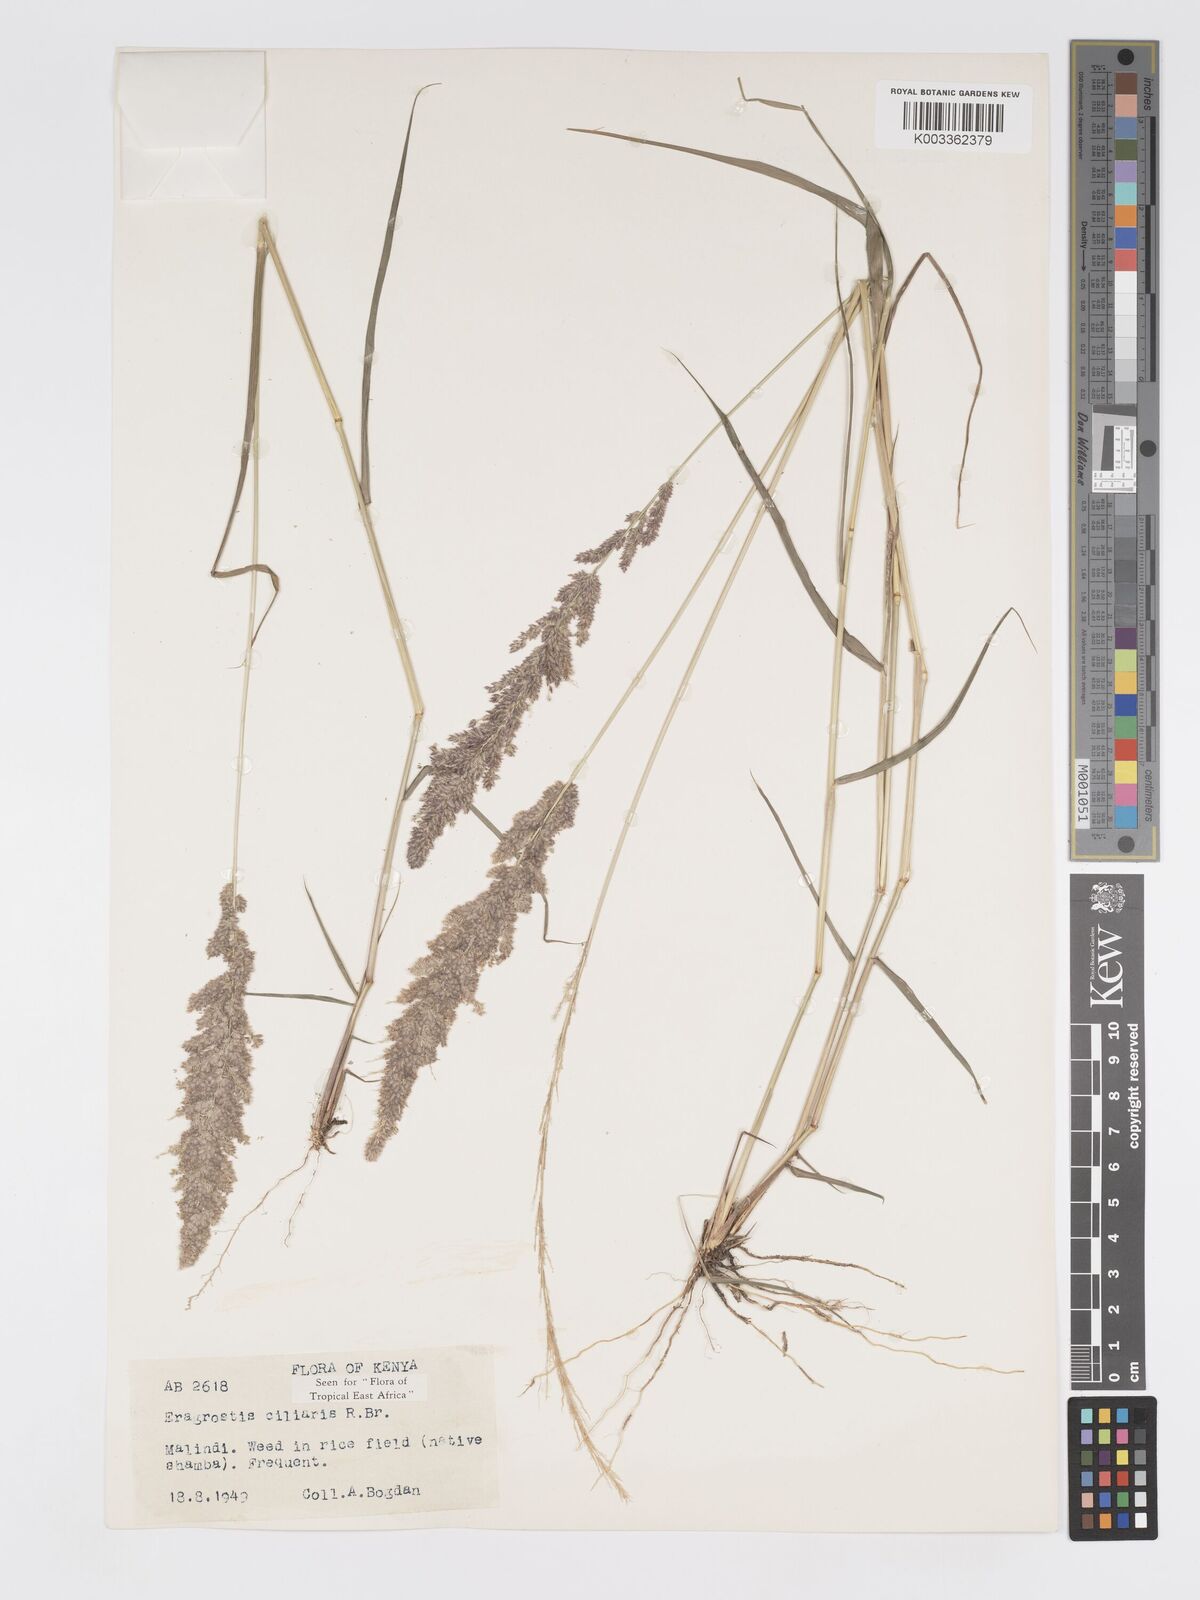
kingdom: Plantae
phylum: Tracheophyta
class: Liliopsida
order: Poales
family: Poaceae
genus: Eragrostis
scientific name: Eragrostis ciliaris
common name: Gophertail lovegrass
